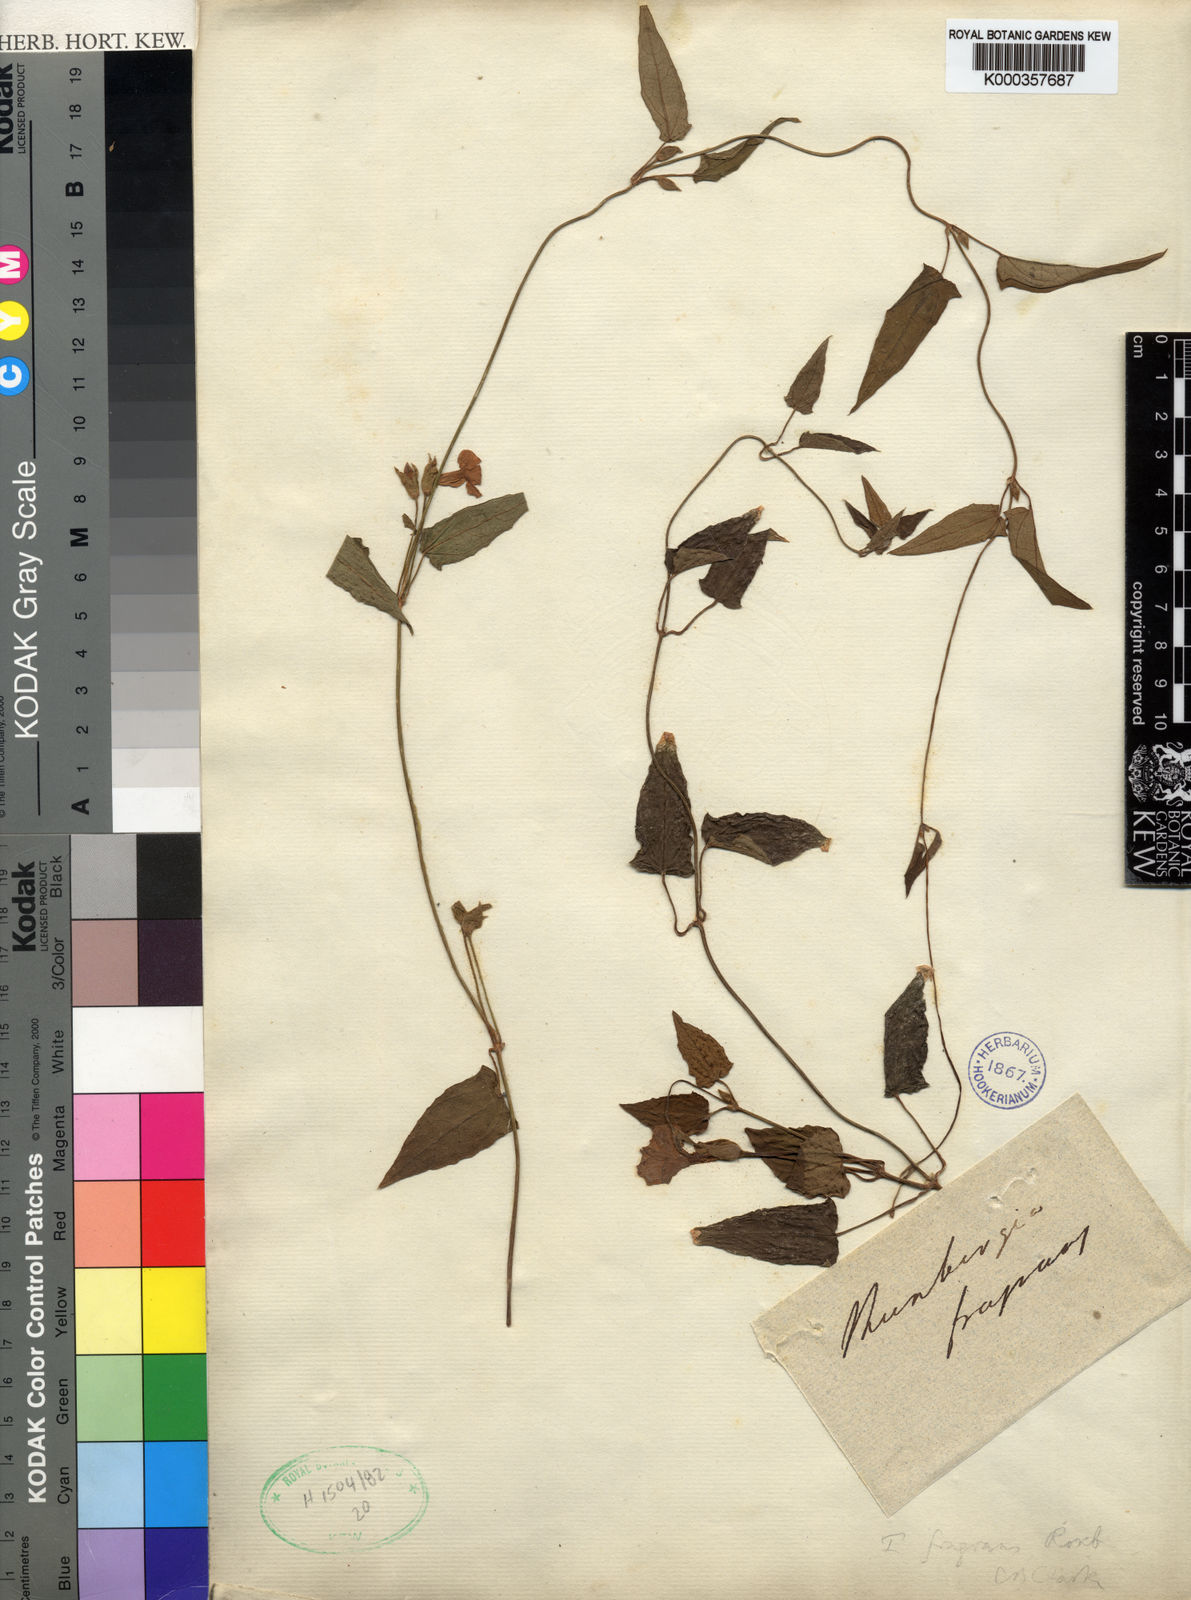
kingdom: Plantae
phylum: Tracheophyta
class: Magnoliopsida
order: Lamiales
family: Acanthaceae
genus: Thunbergia
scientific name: Thunbergia fragrans
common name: Whitelady
